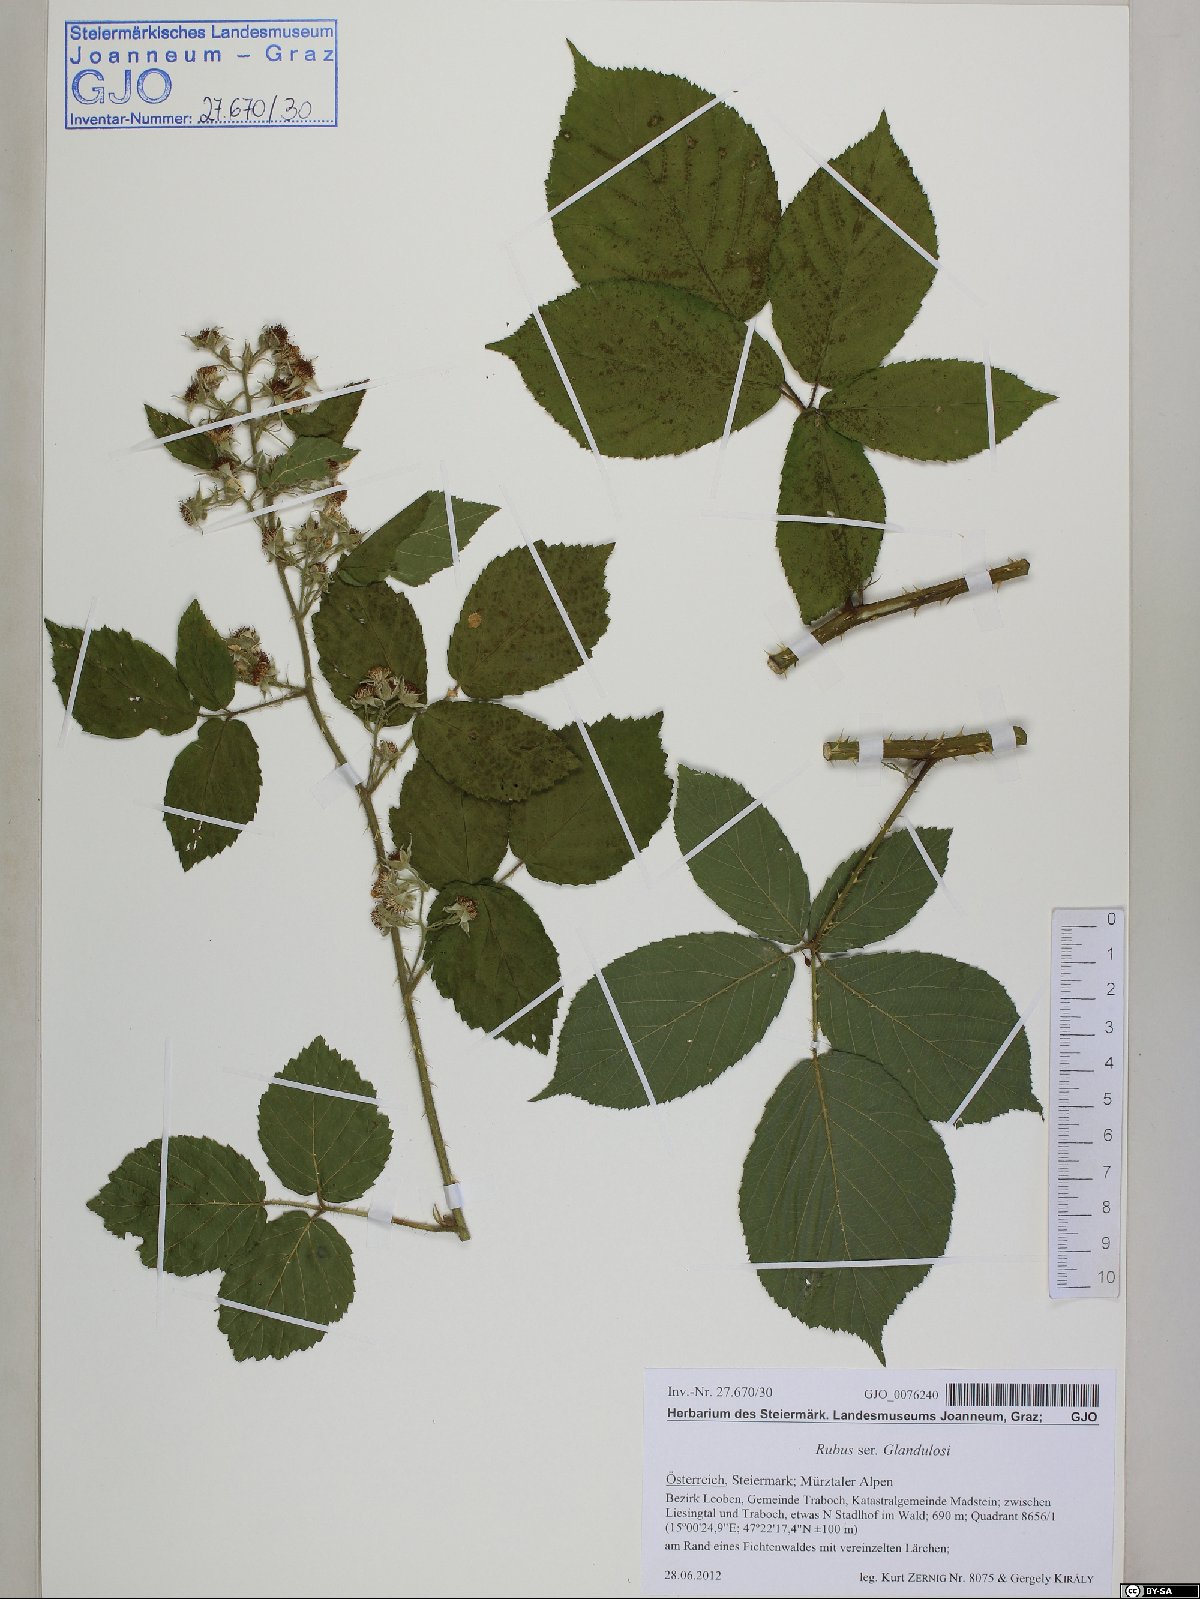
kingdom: Plantae
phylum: Tracheophyta
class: Magnoliopsida
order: Rosales
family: Rosaceae
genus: Rubus
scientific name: Rubus
